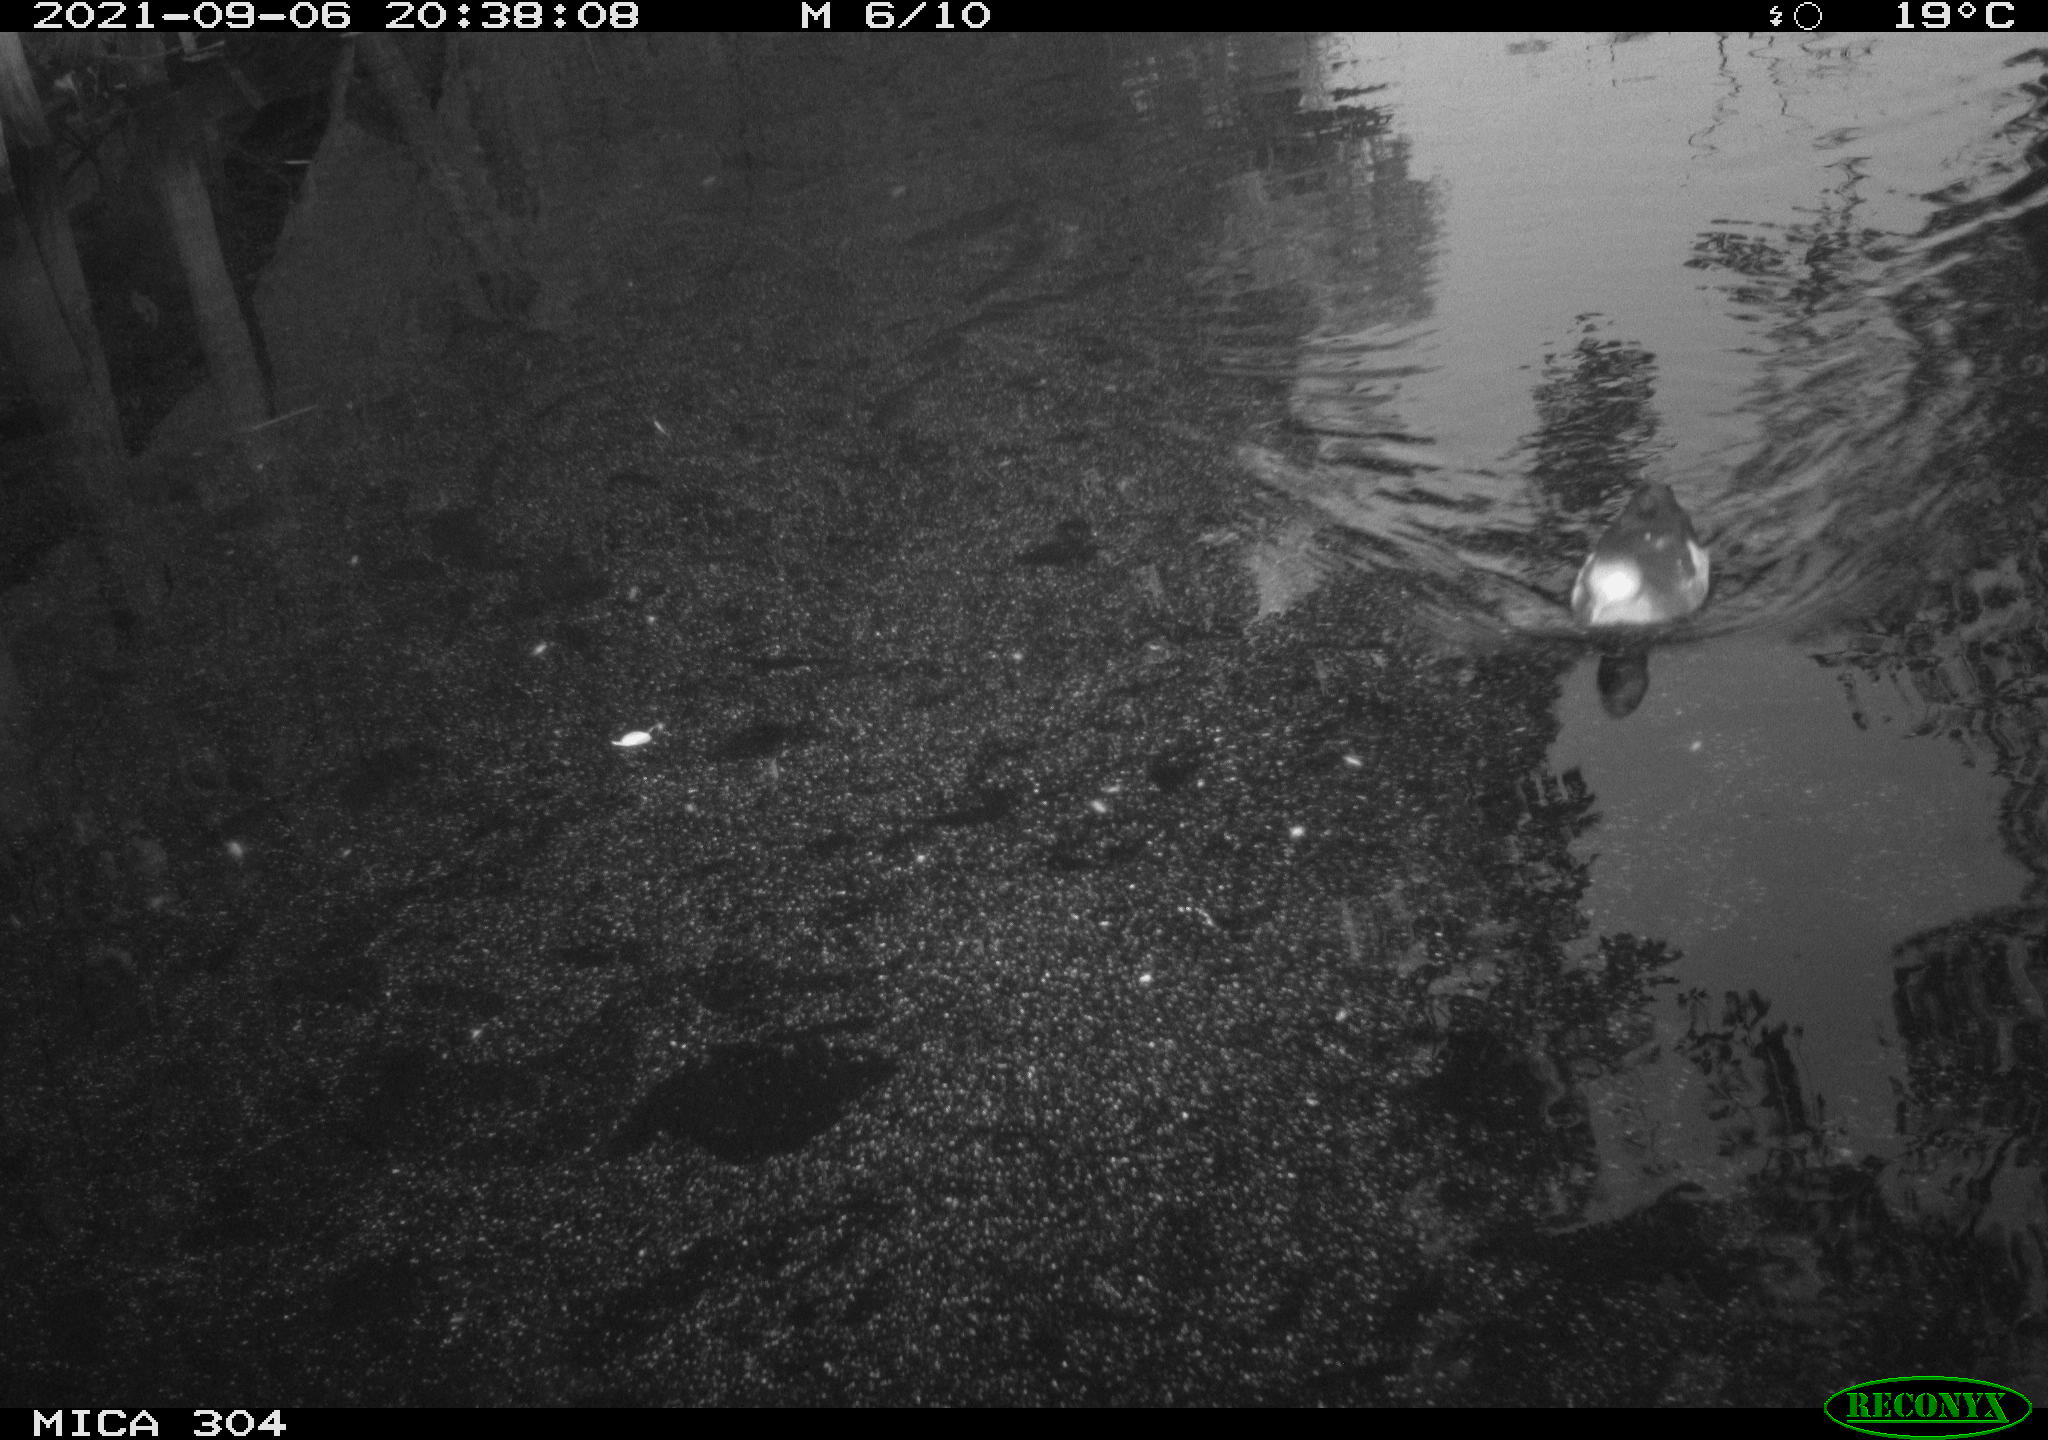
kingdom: Animalia
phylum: Chordata
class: Aves
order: Gruiformes
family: Rallidae
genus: Gallinula
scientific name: Gallinula chloropus
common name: Common moorhen
